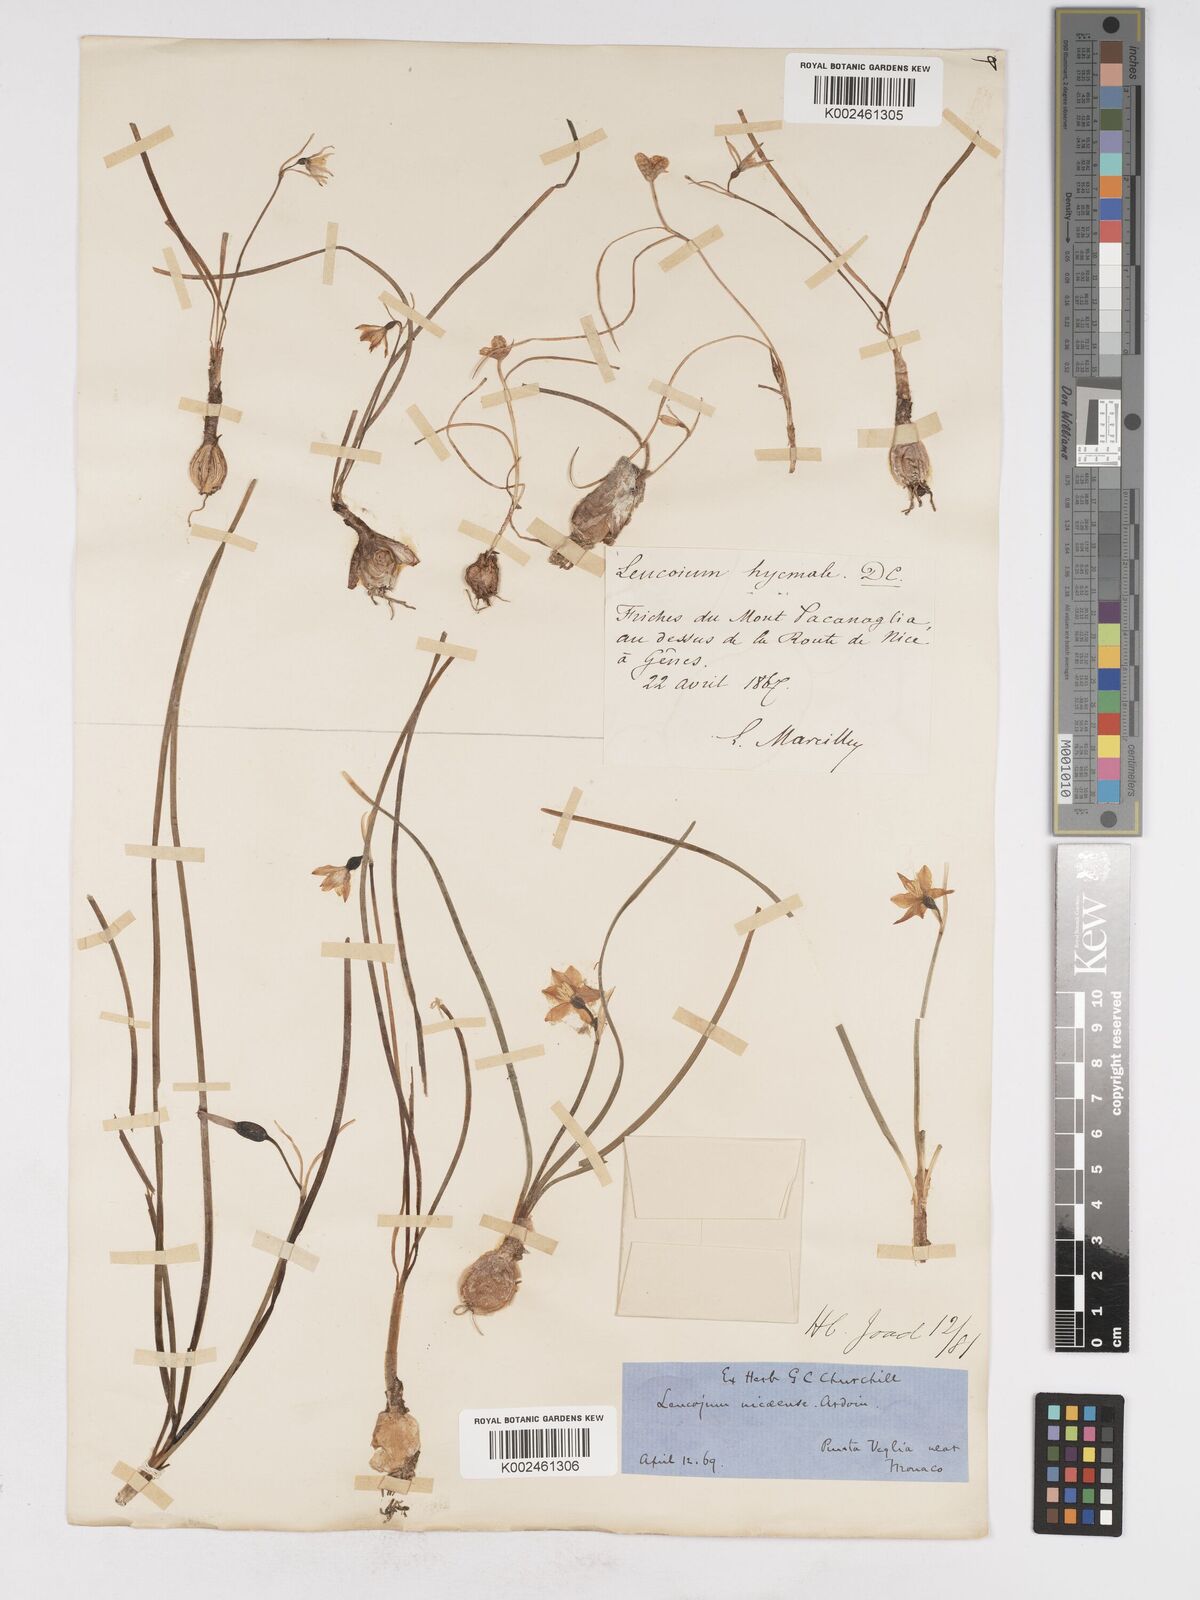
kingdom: Plantae
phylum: Tracheophyta
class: Liliopsida
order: Asparagales
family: Amaryllidaceae
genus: Acis
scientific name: Acis nicaeensis
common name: French snowflake
